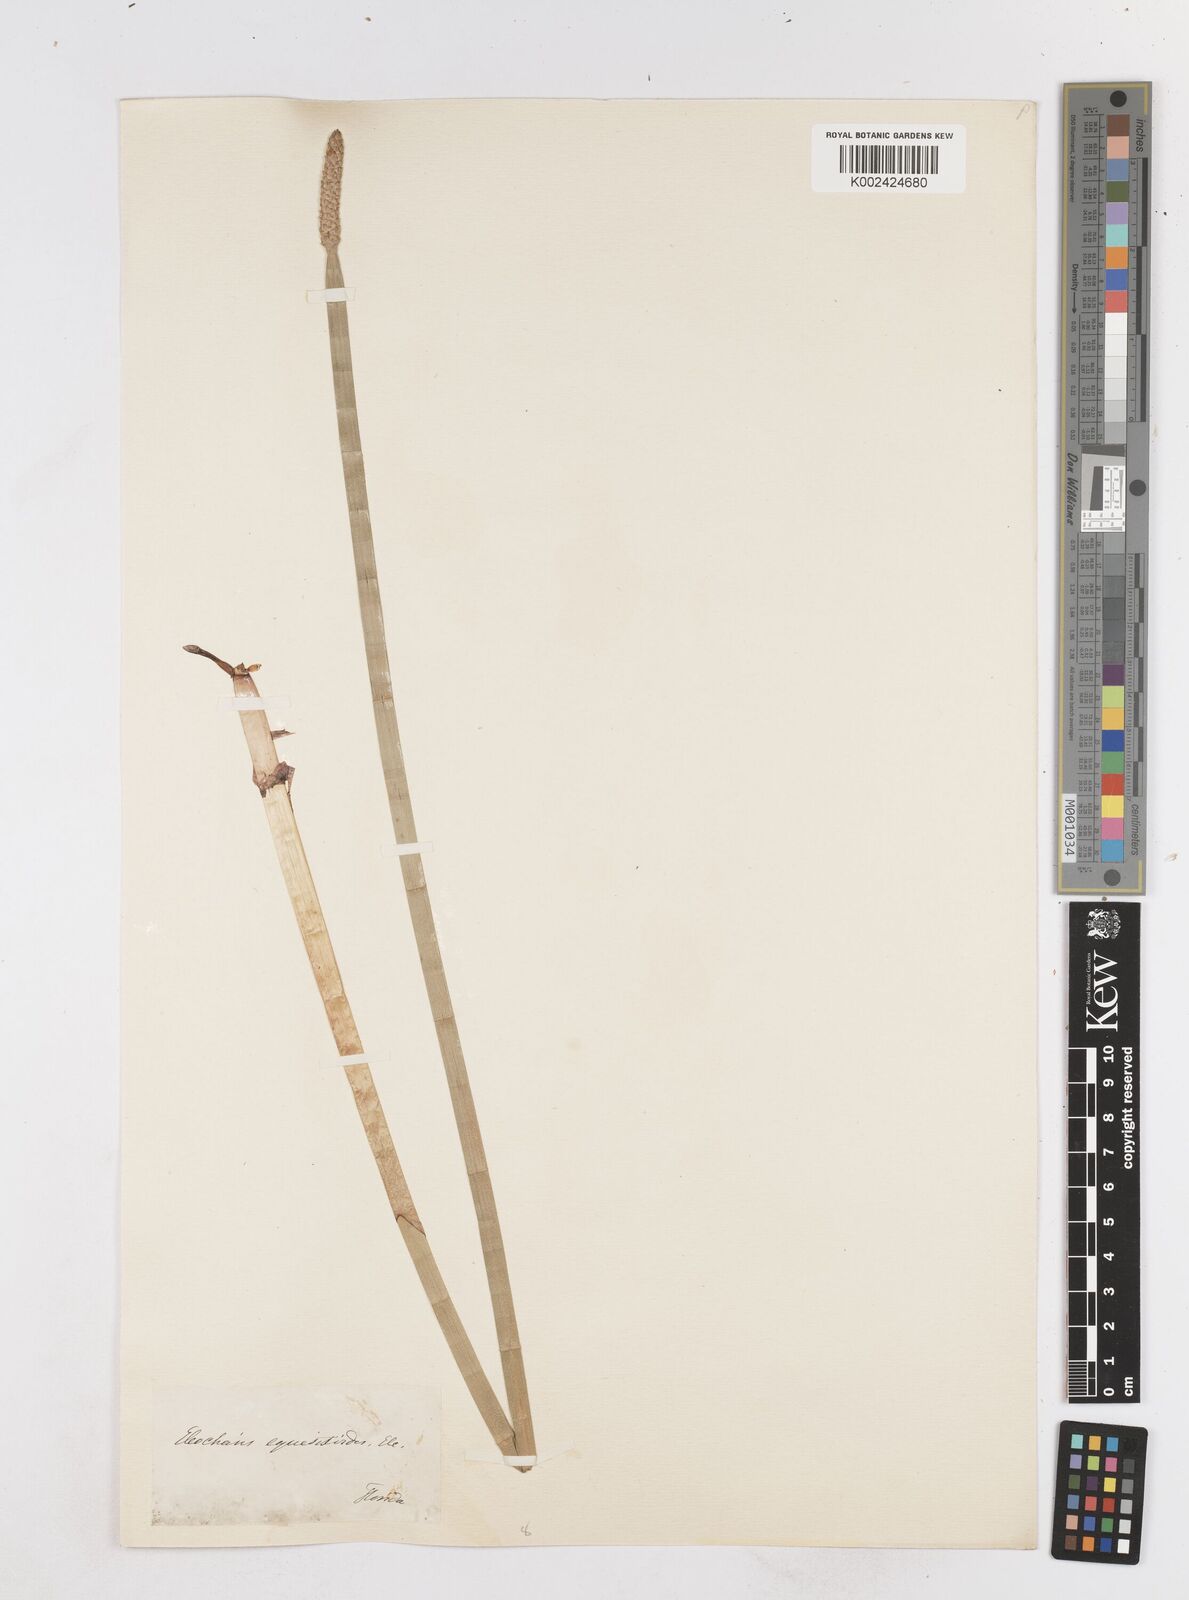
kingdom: Plantae
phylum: Tracheophyta
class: Liliopsida
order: Poales
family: Cyperaceae
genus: Eleocharis
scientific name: Eleocharis equisetoides
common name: Horsetail spike-rush
